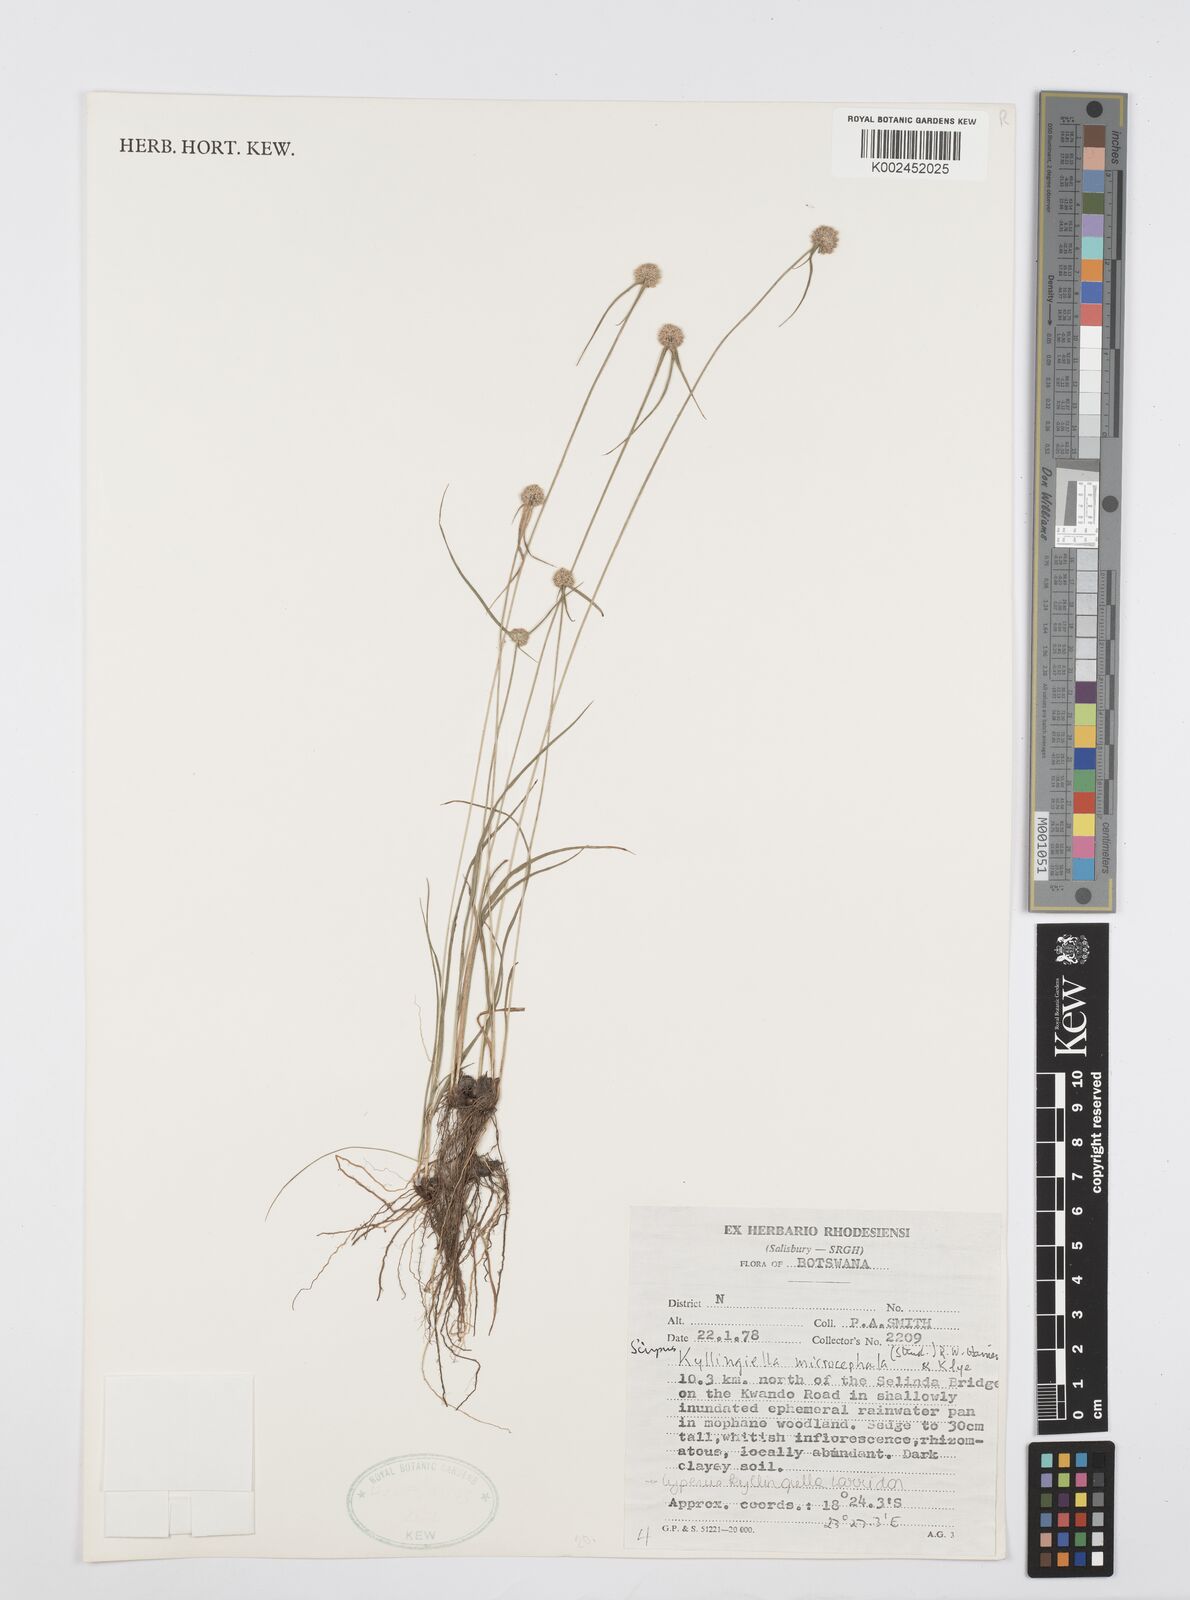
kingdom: Plantae
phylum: Tracheophyta
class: Liliopsida
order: Poales
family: Cyperaceae
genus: Cyperus
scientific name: Cyperus microcephalus
